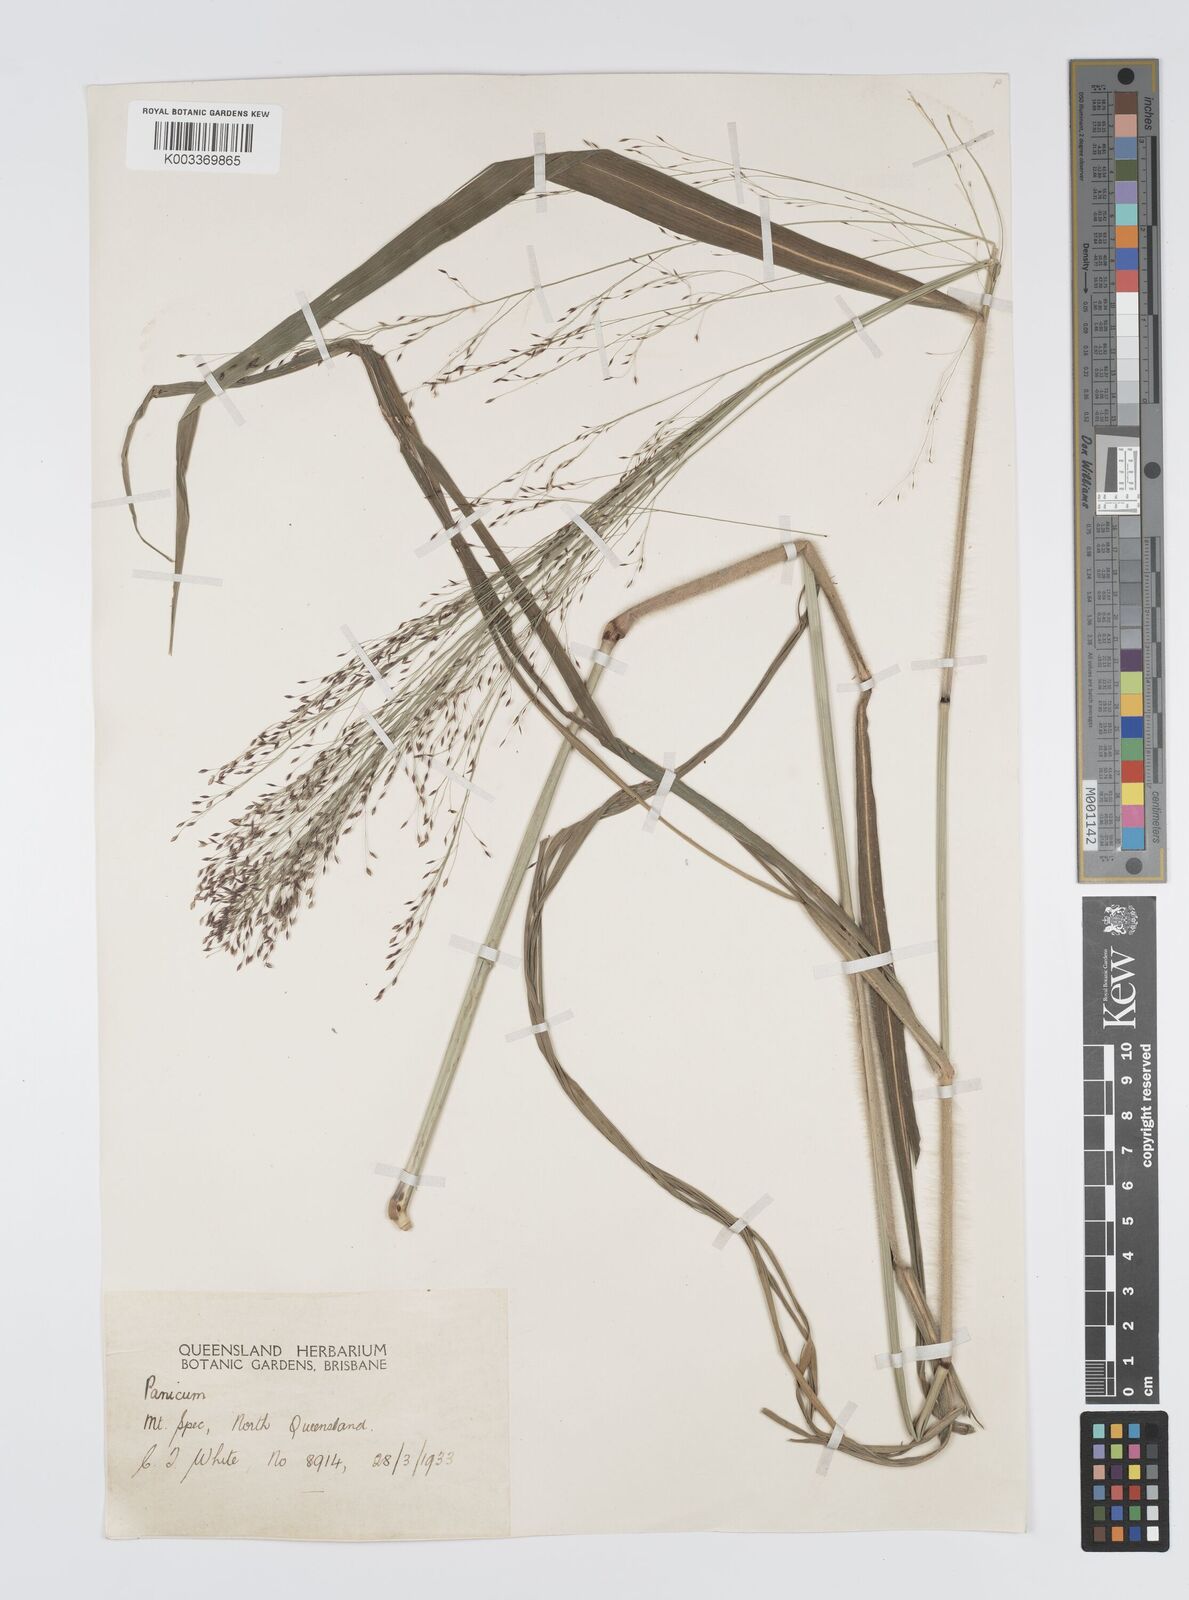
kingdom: Plantae
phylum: Tracheophyta
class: Liliopsida
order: Poales
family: Poaceae
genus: Panicum
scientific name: Panicum mitchellii
